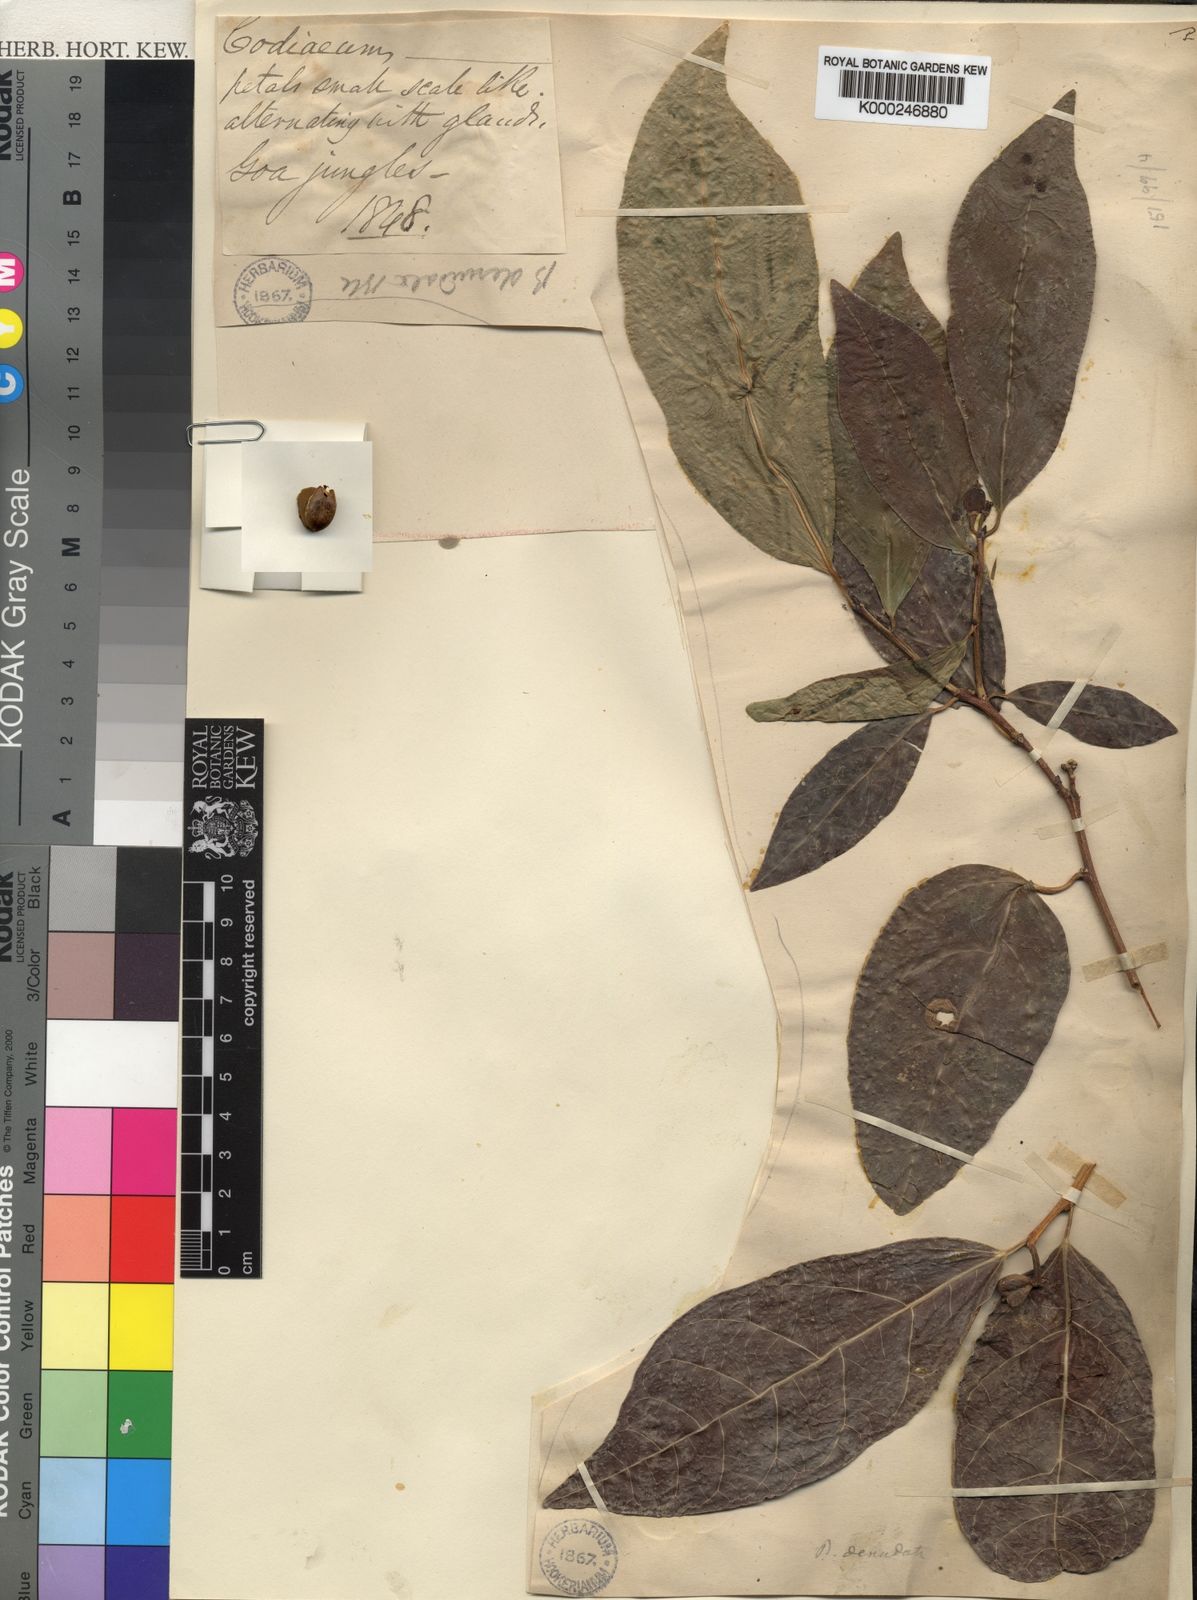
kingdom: Plantae
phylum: Tracheophyta
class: Magnoliopsida
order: Malpighiales
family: Euphorbiaceae
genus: Blachia
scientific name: Blachia denudata
